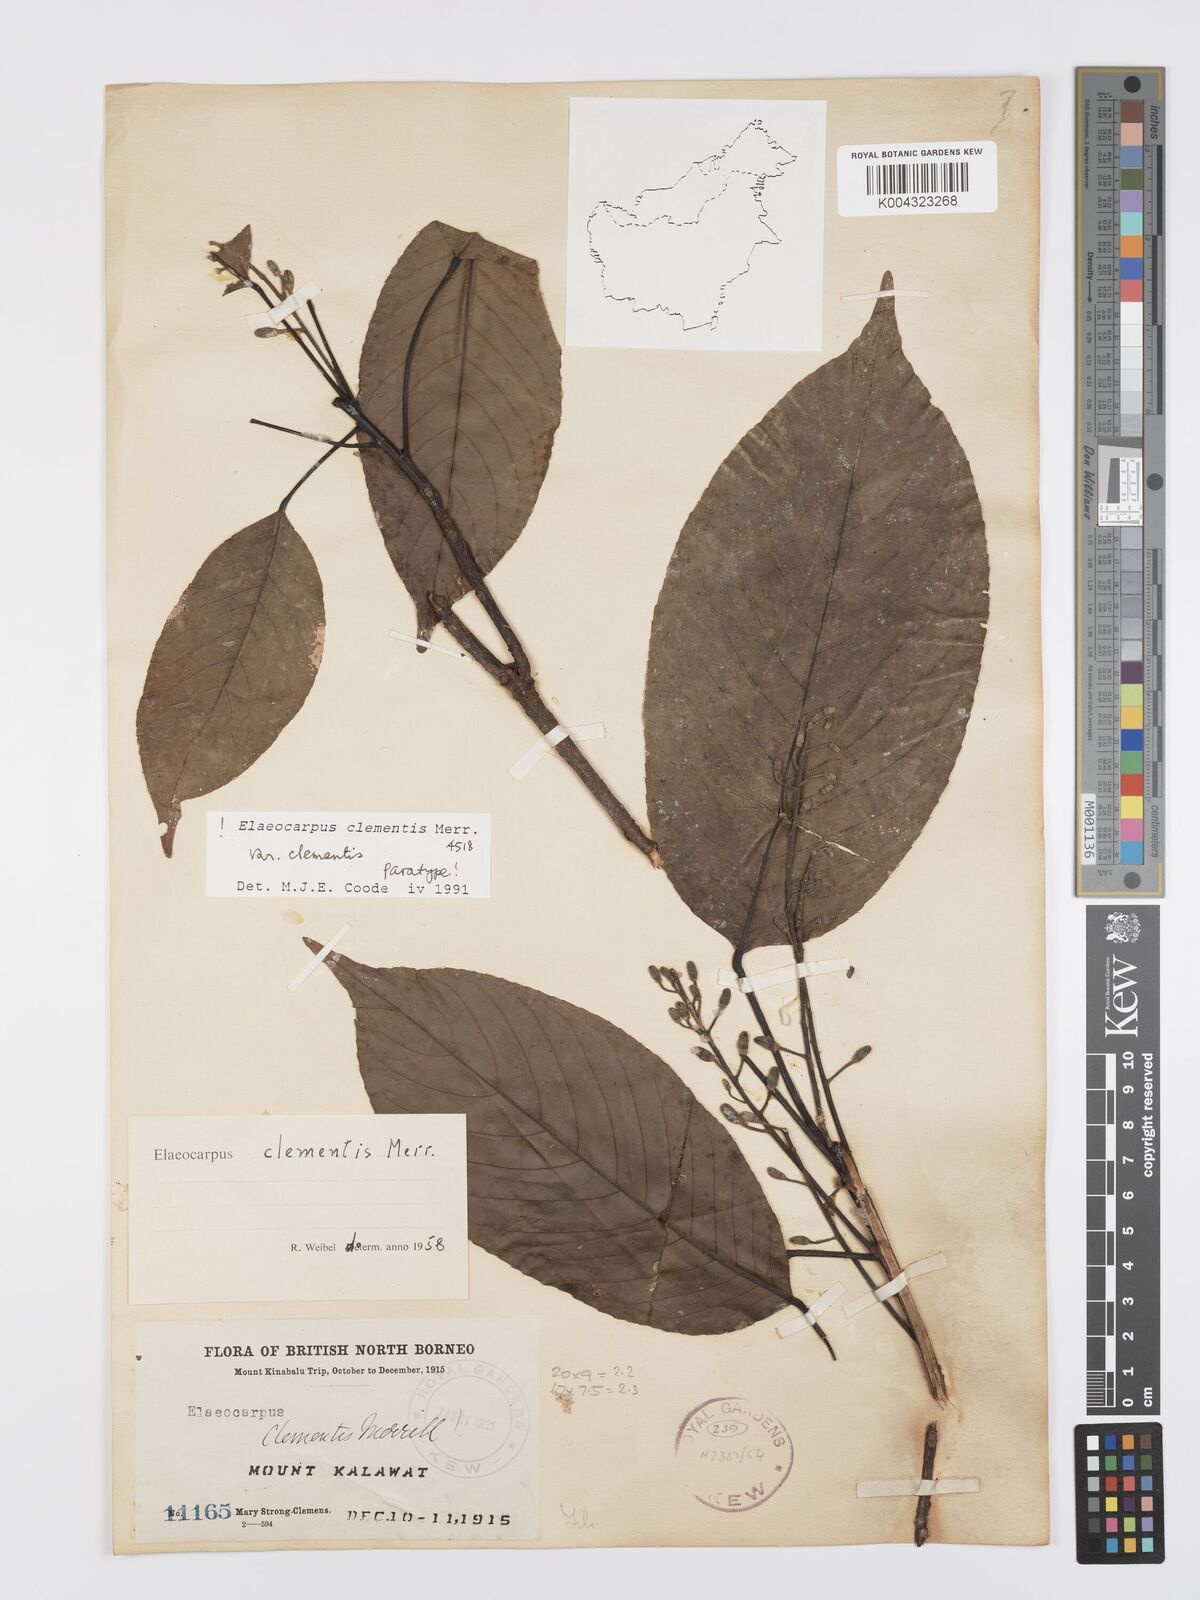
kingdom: Plantae
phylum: Tracheophyta
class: Magnoliopsida
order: Oxalidales
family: Elaeocarpaceae
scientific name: Elaeocarpaceae
